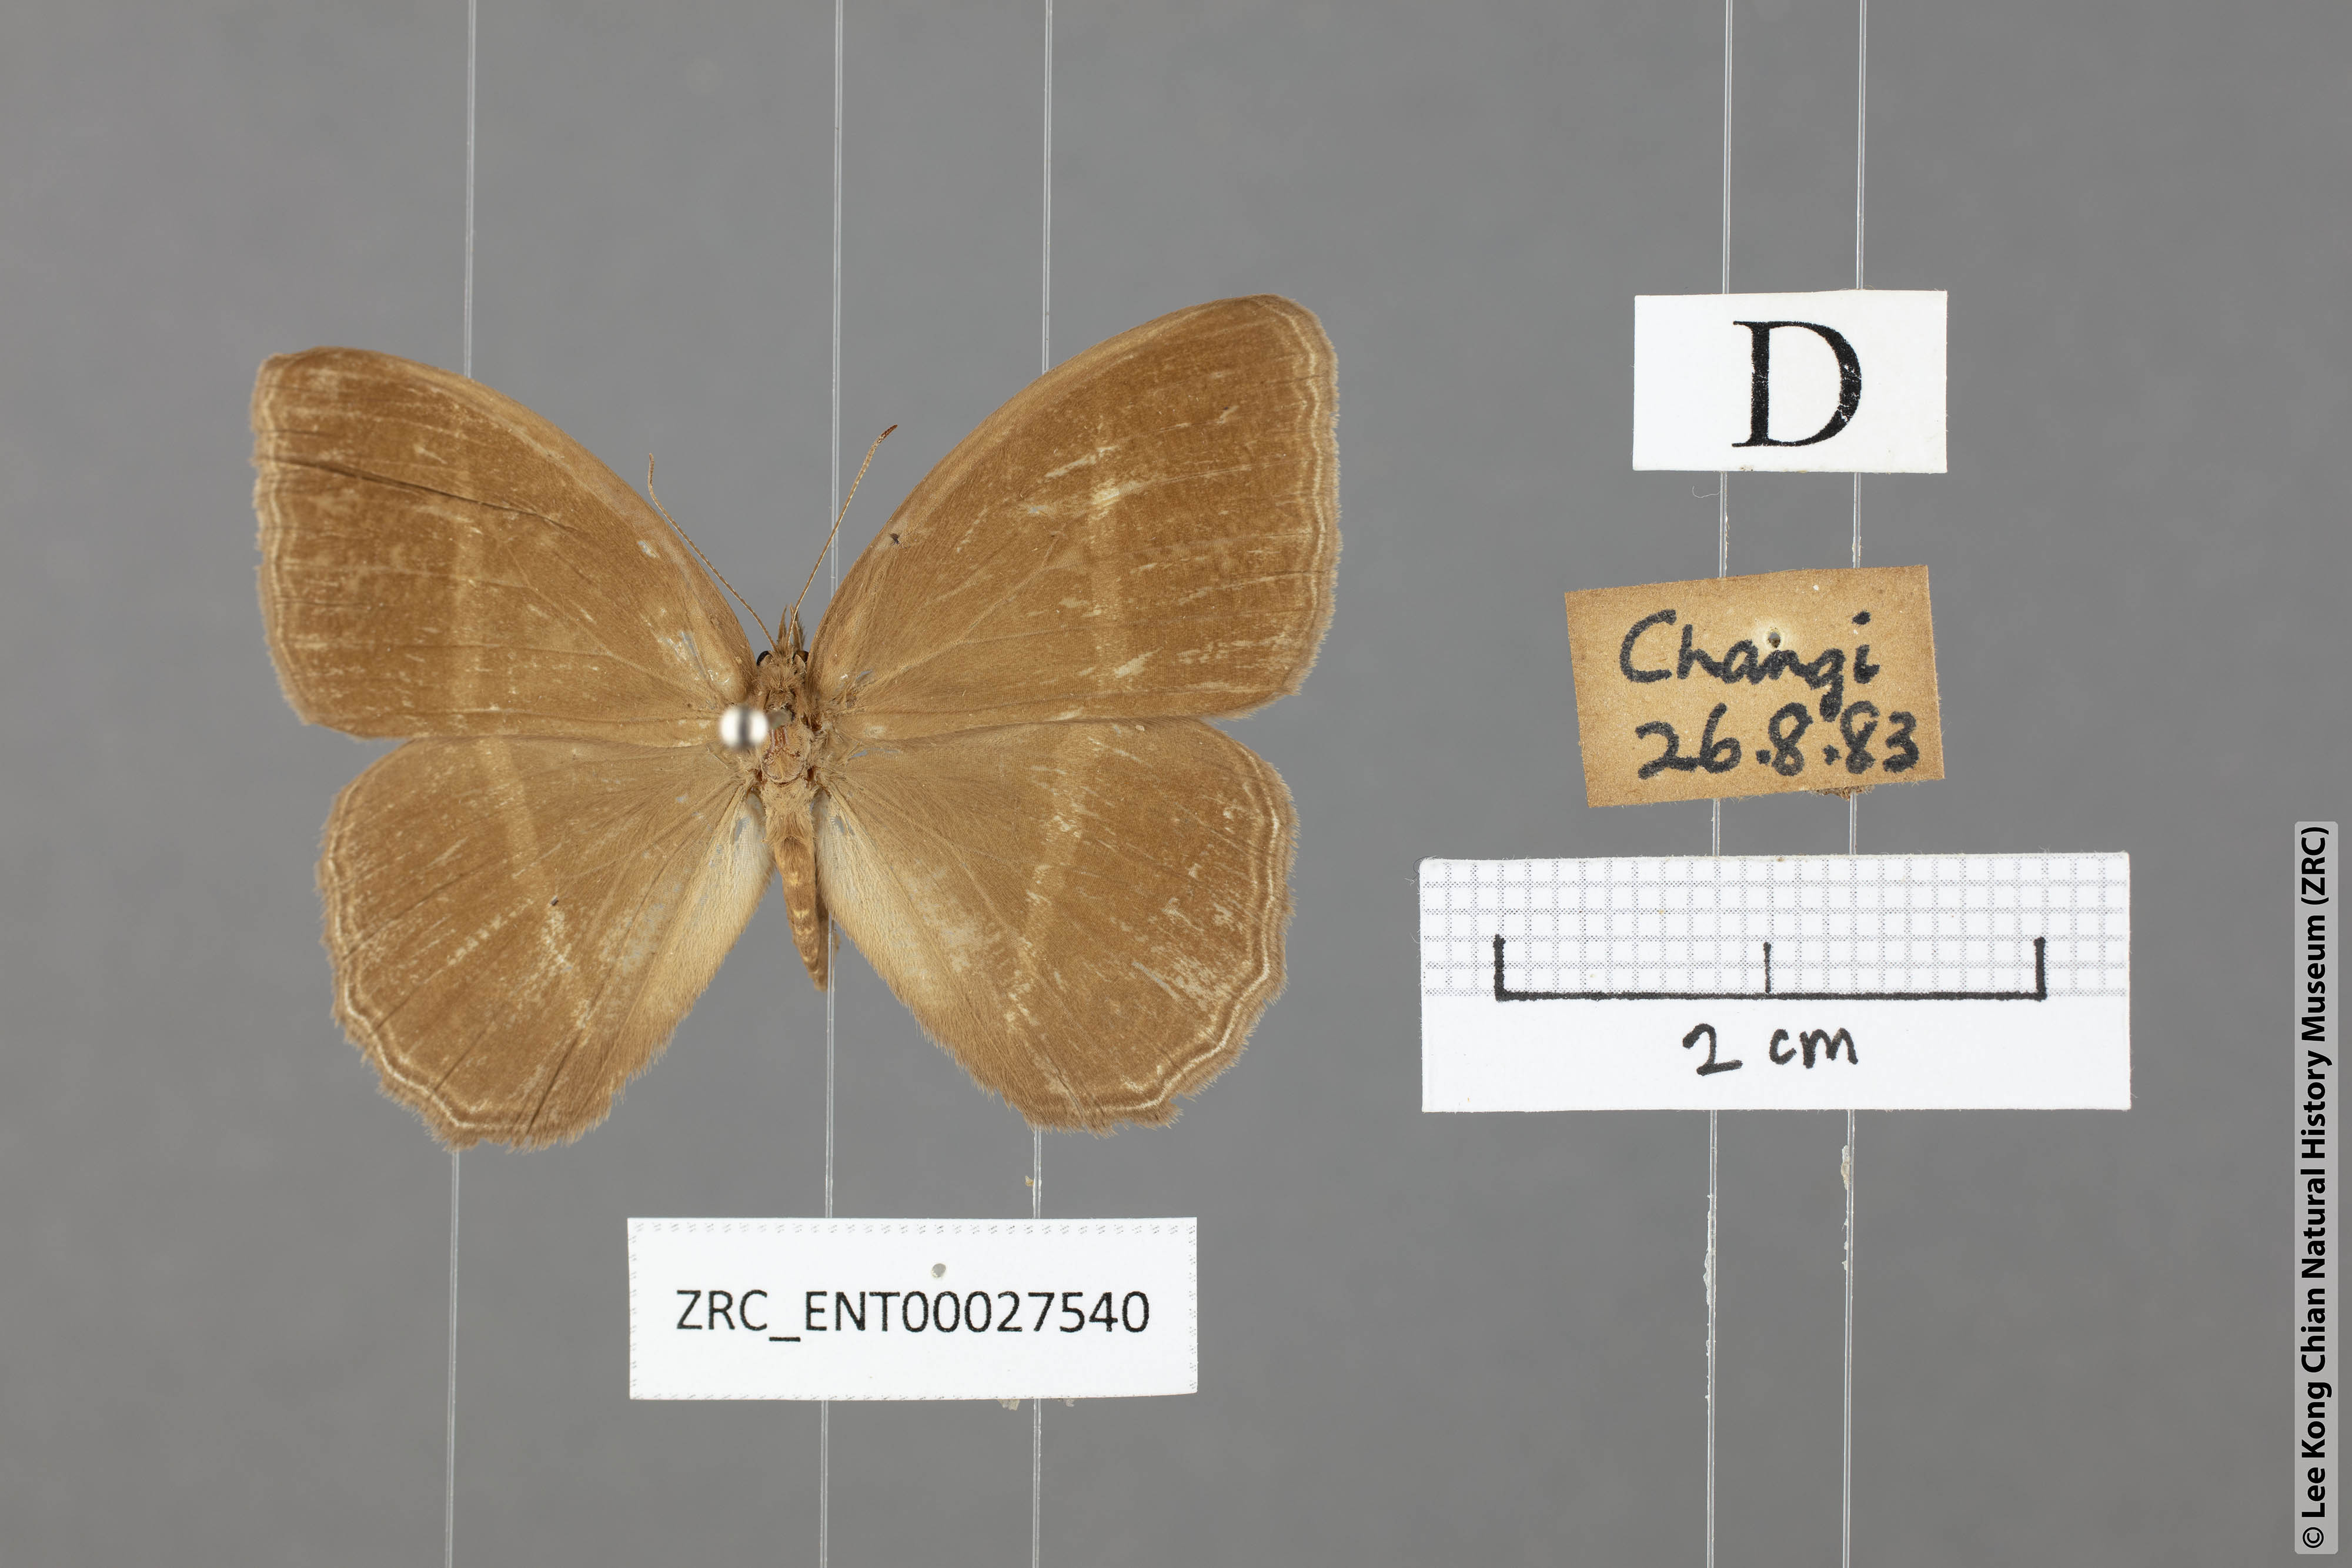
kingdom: Animalia
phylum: Arthropoda
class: Insecta
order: Lepidoptera
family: Nymphalidae
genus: Orsotriaena
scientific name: Orsotriaena medus
